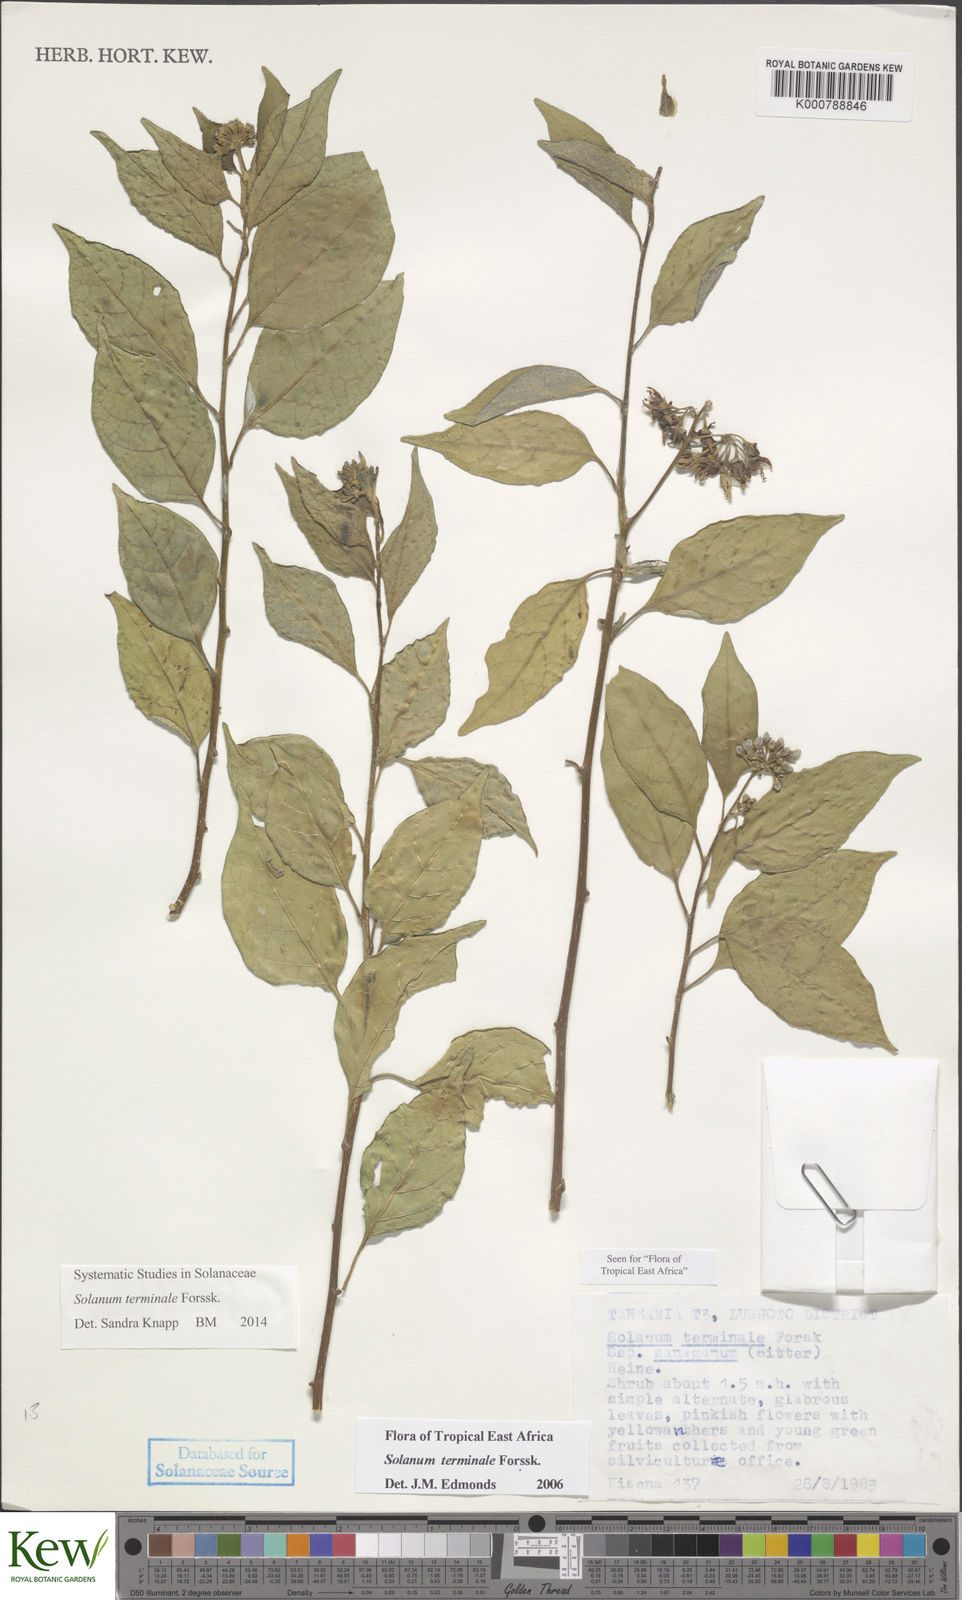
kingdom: Plantae
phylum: Tracheophyta
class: Magnoliopsida
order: Solanales
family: Solanaceae
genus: Solanum
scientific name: Solanum terminale
